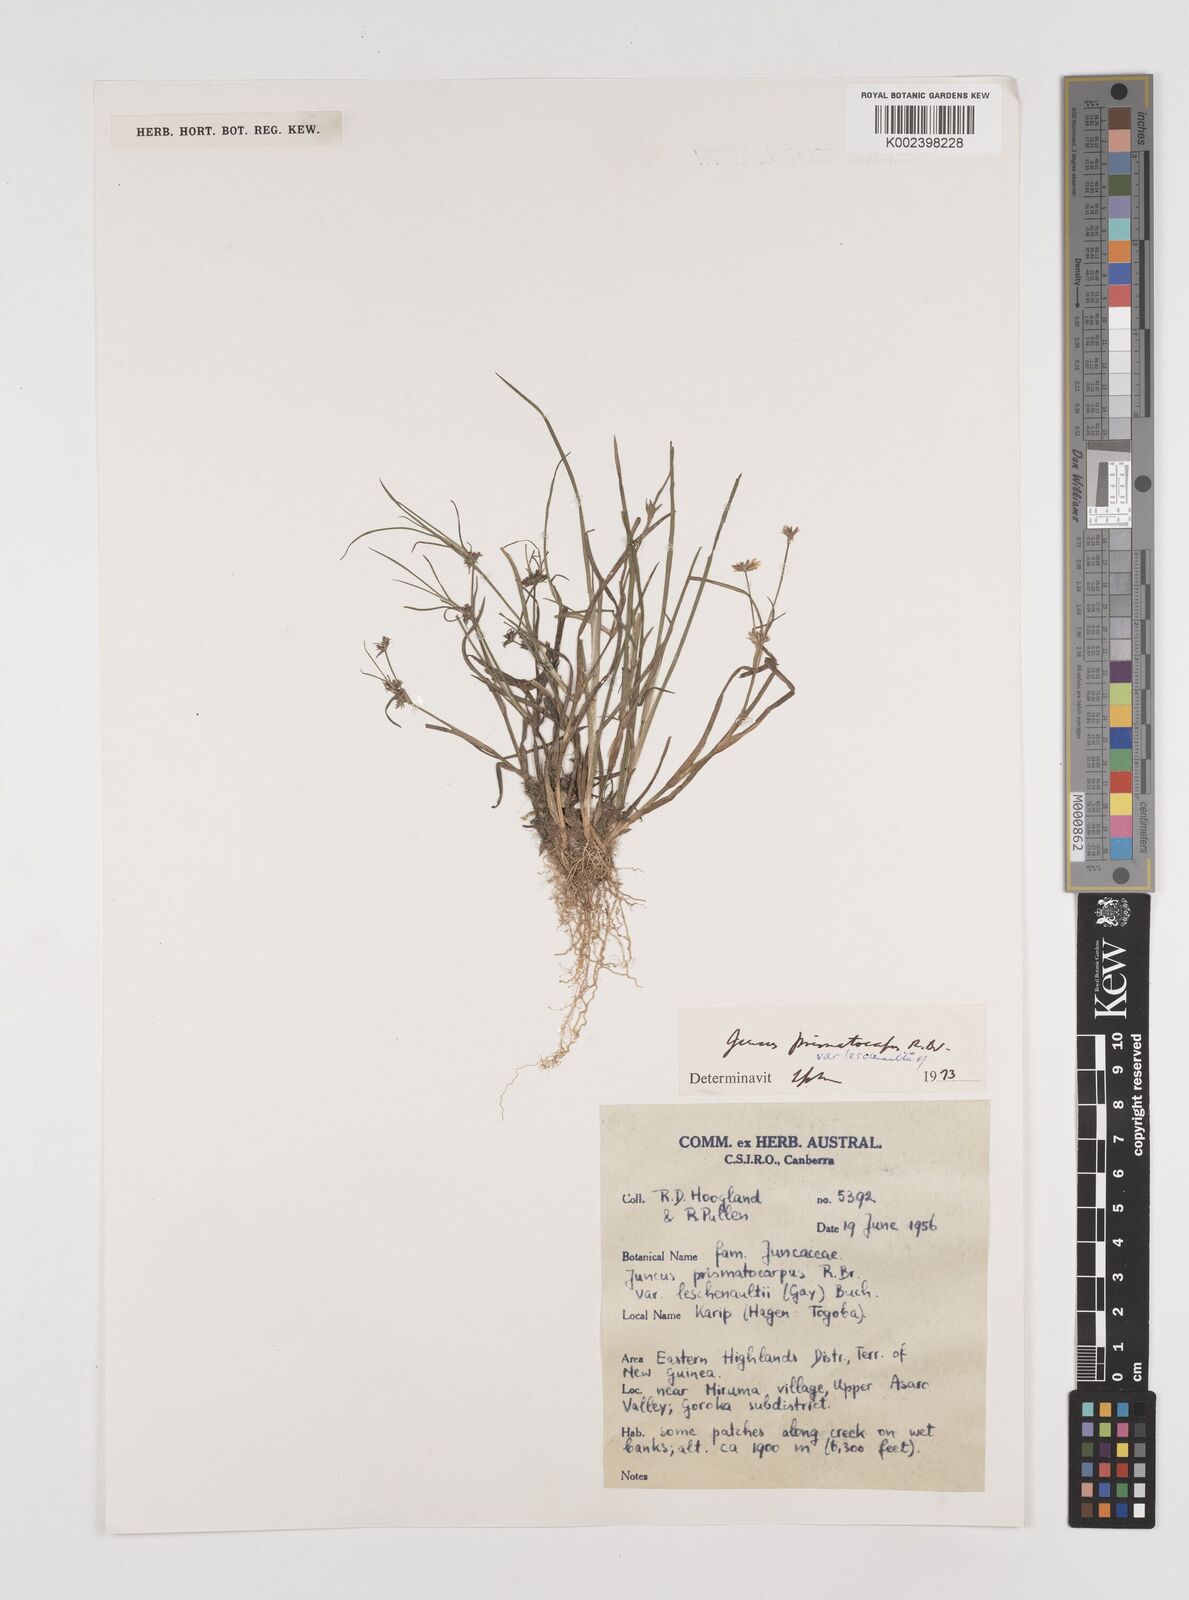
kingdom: Plantae
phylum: Tracheophyta
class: Liliopsida
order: Poales
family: Juncaceae
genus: Juncus
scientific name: Juncus prismatocarpus
